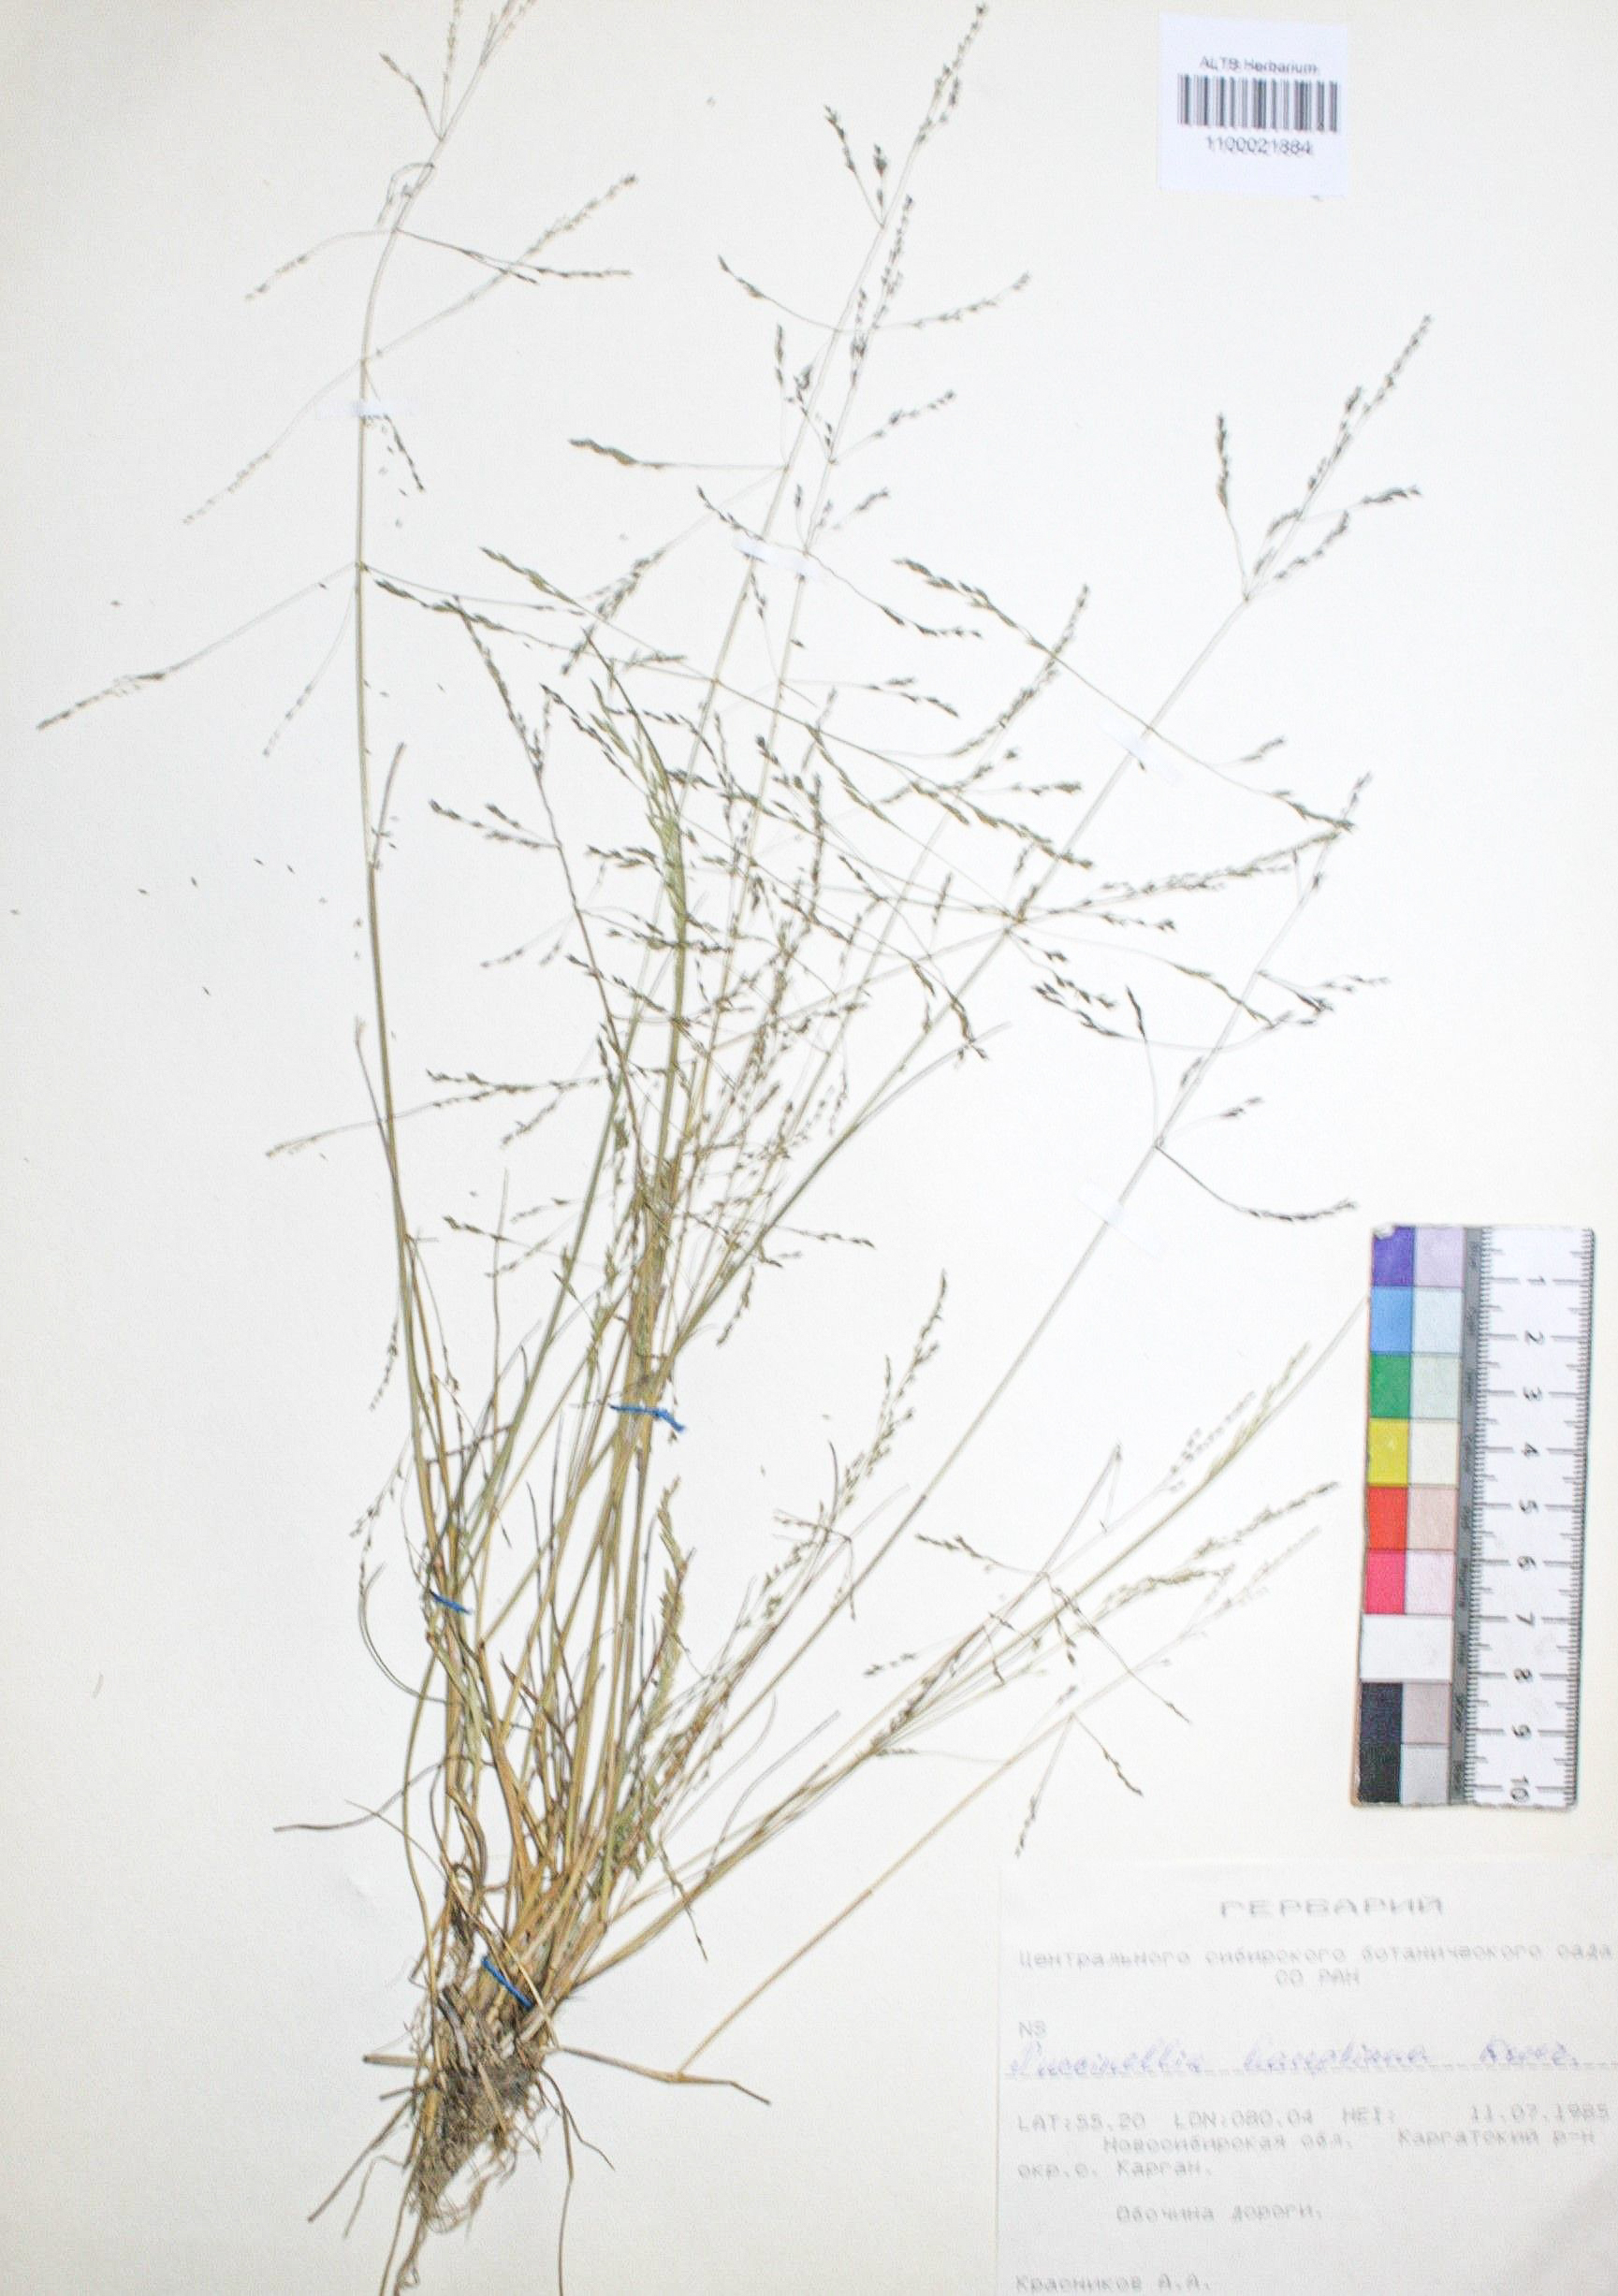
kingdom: Plantae
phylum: Tracheophyta
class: Liliopsida
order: Poales
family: Poaceae
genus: Puccinellia
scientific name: Puccinellia hauptiana
